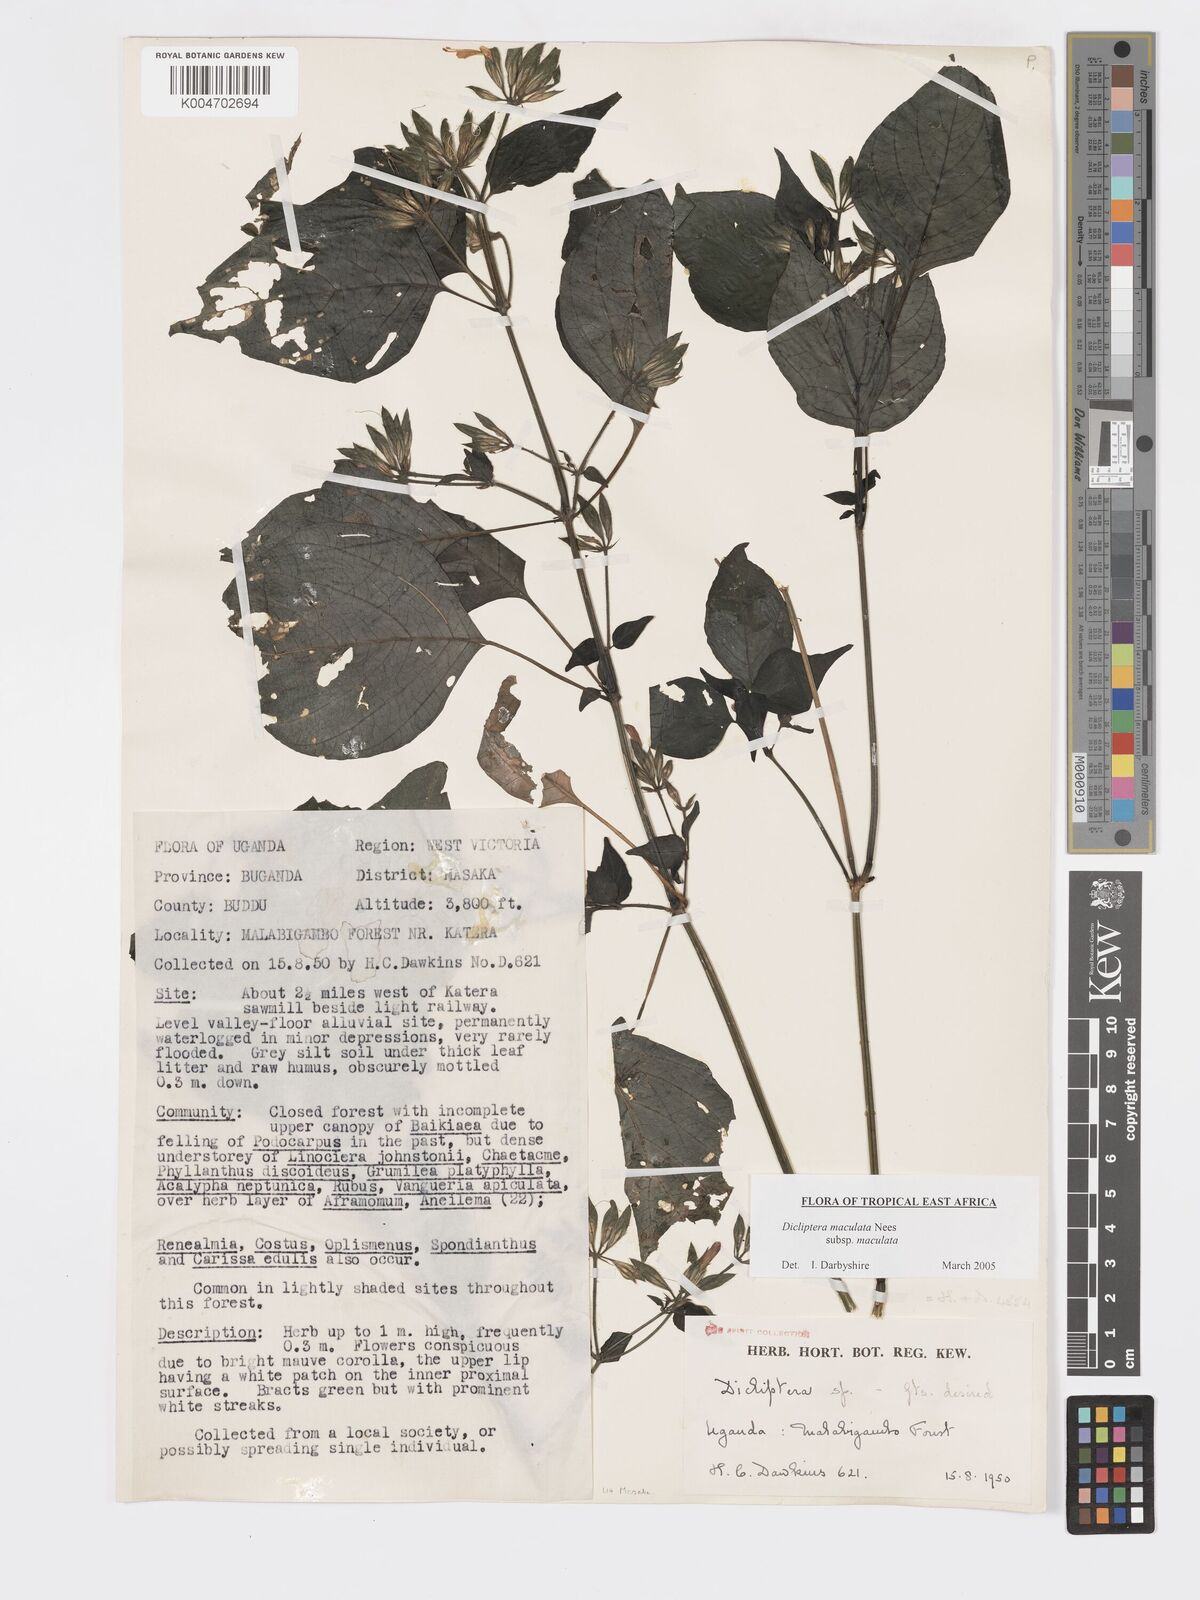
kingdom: Plantae
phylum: Tracheophyta
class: Magnoliopsida
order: Lamiales
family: Acanthaceae
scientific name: Acanthaceae
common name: Acanthaceae
